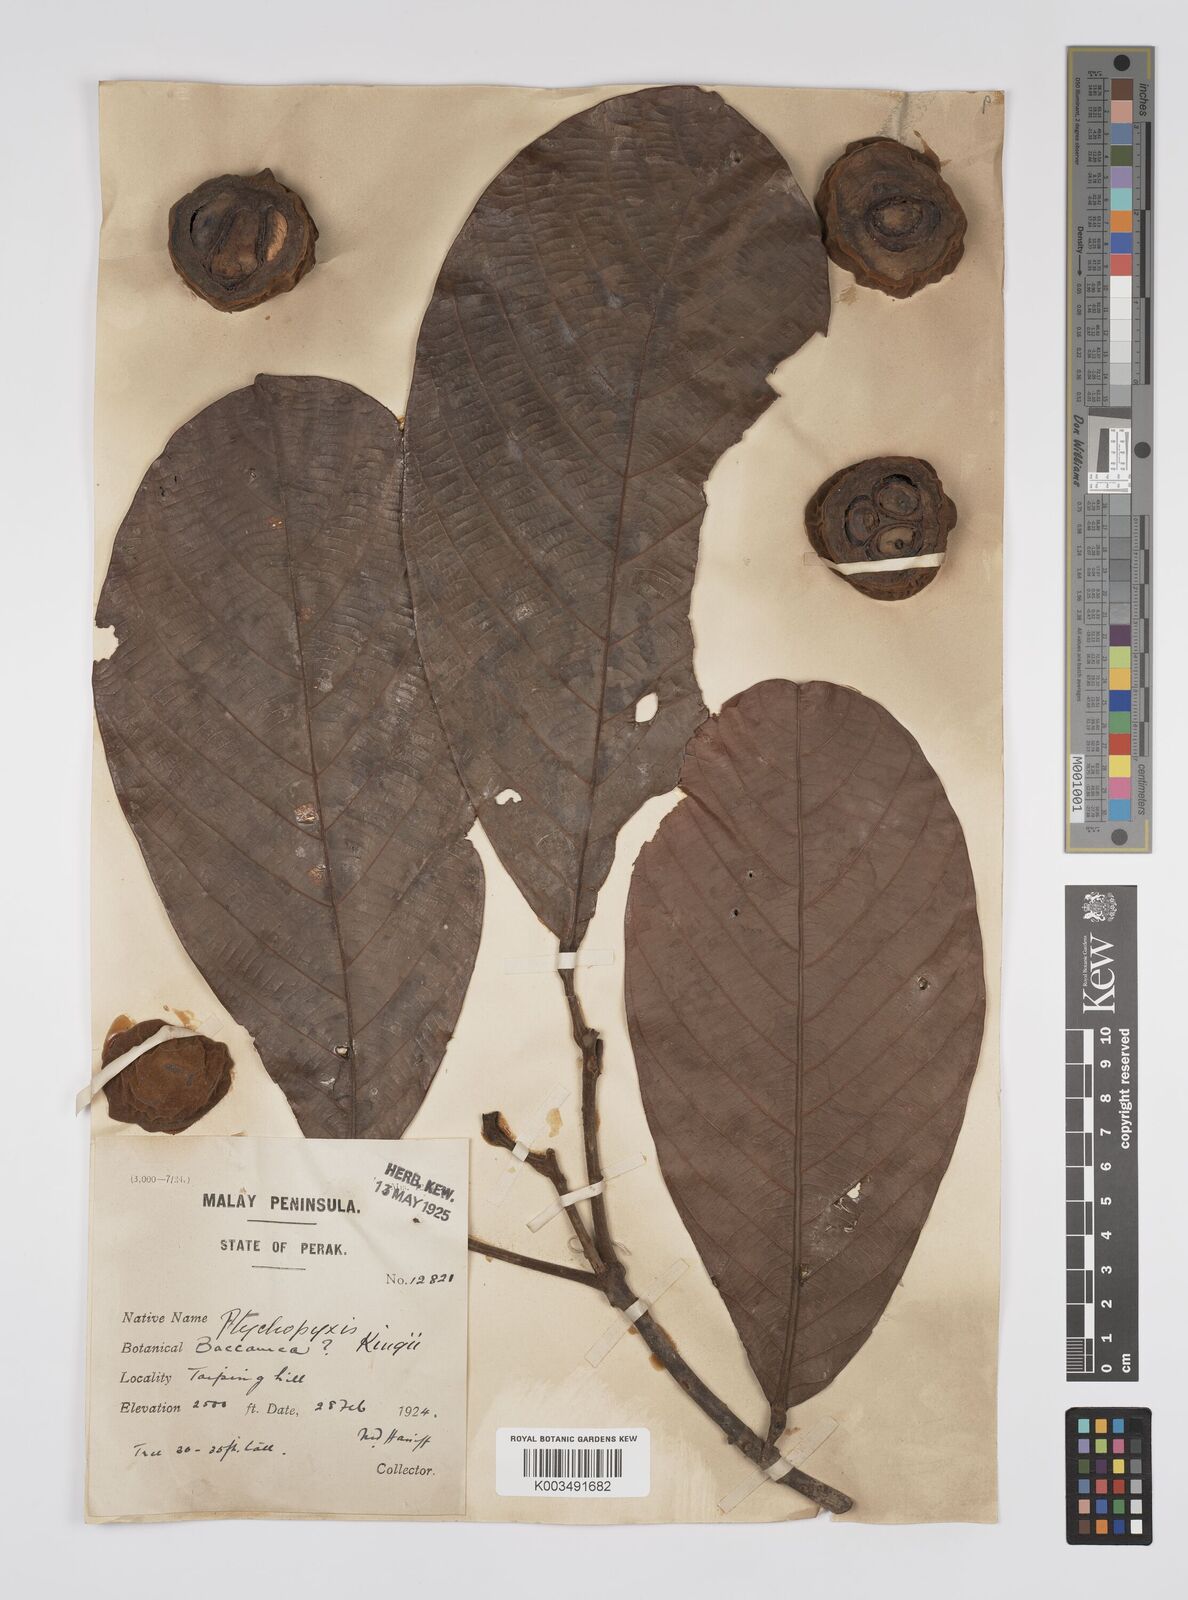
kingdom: Plantae
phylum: Tracheophyta
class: Magnoliopsida
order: Malpighiales
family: Euphorbiaceae
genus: Ptychopyxis
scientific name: Ptychopyxis kingii
